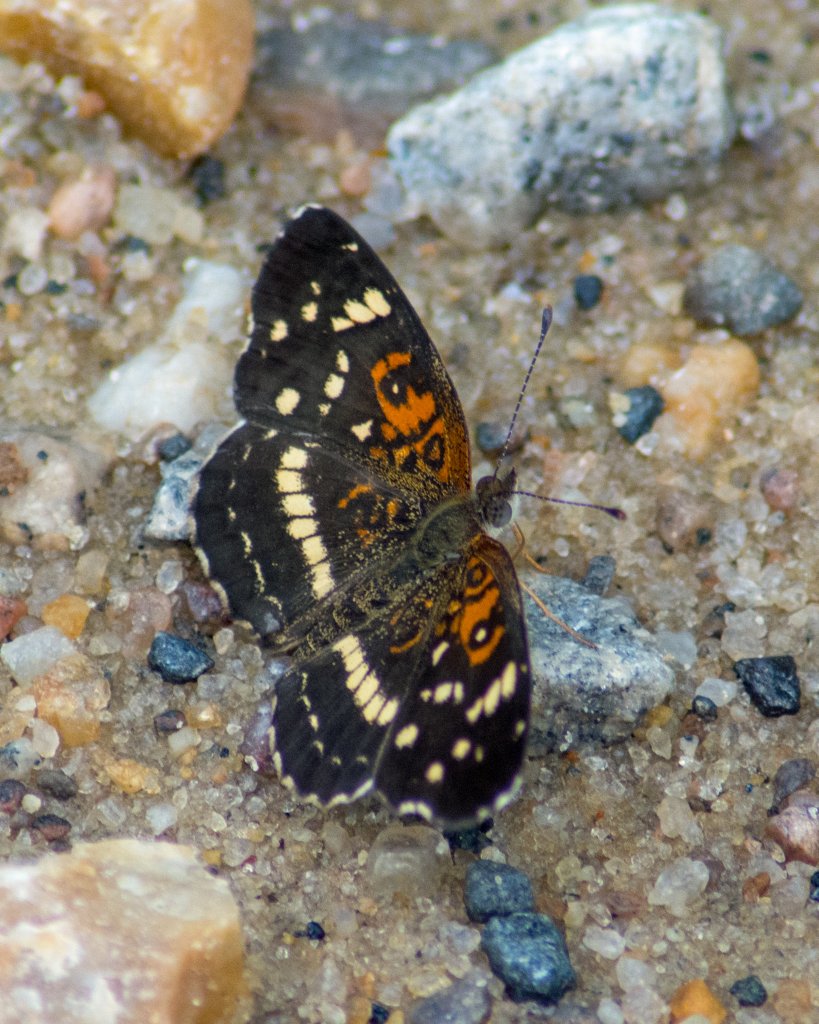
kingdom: Animalia
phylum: Arthropoda
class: Insecta
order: Lepidoptera
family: Nymphalidae
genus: Anthanassa
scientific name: Anthanassa texana
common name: Texan Crescent
